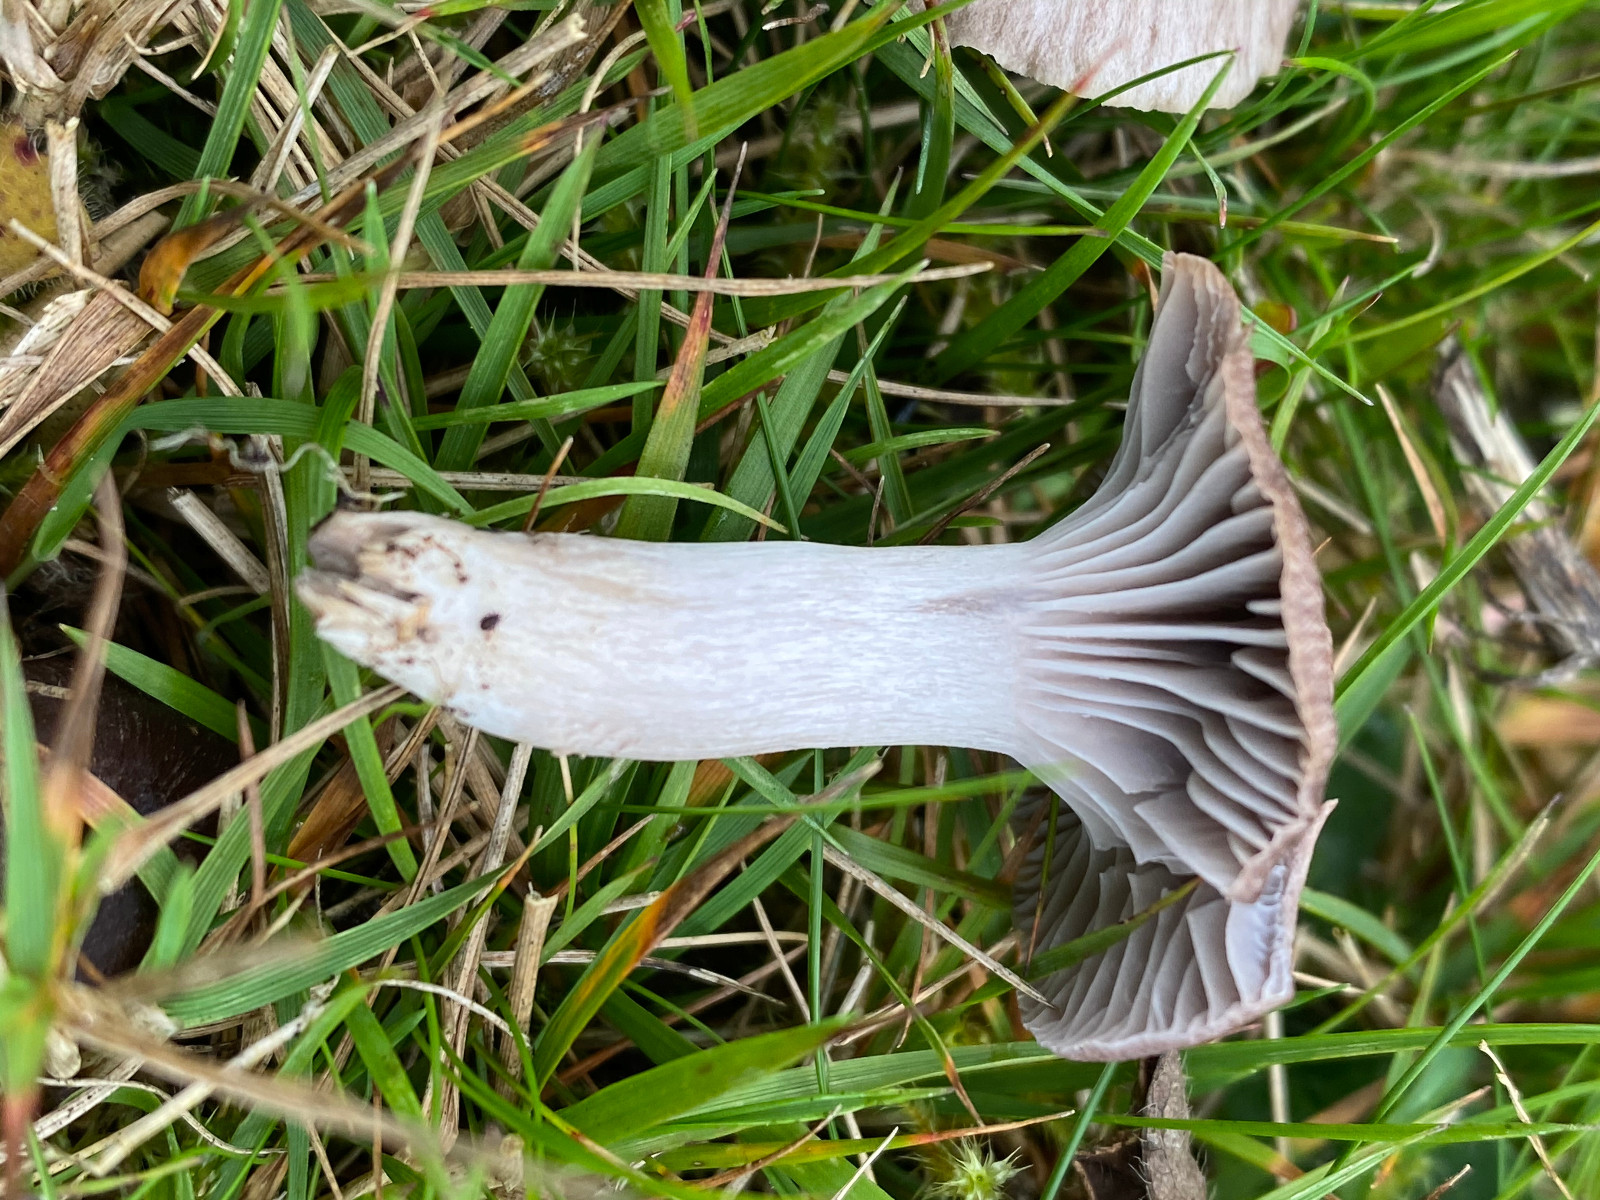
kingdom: Fungi
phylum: Basidiomycota
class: Agaricomycetes
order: Agaricales
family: Hygrophoraceae
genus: Cuphophyllus
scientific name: Cuphophyllus flavipes
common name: gulfodet vokshat
